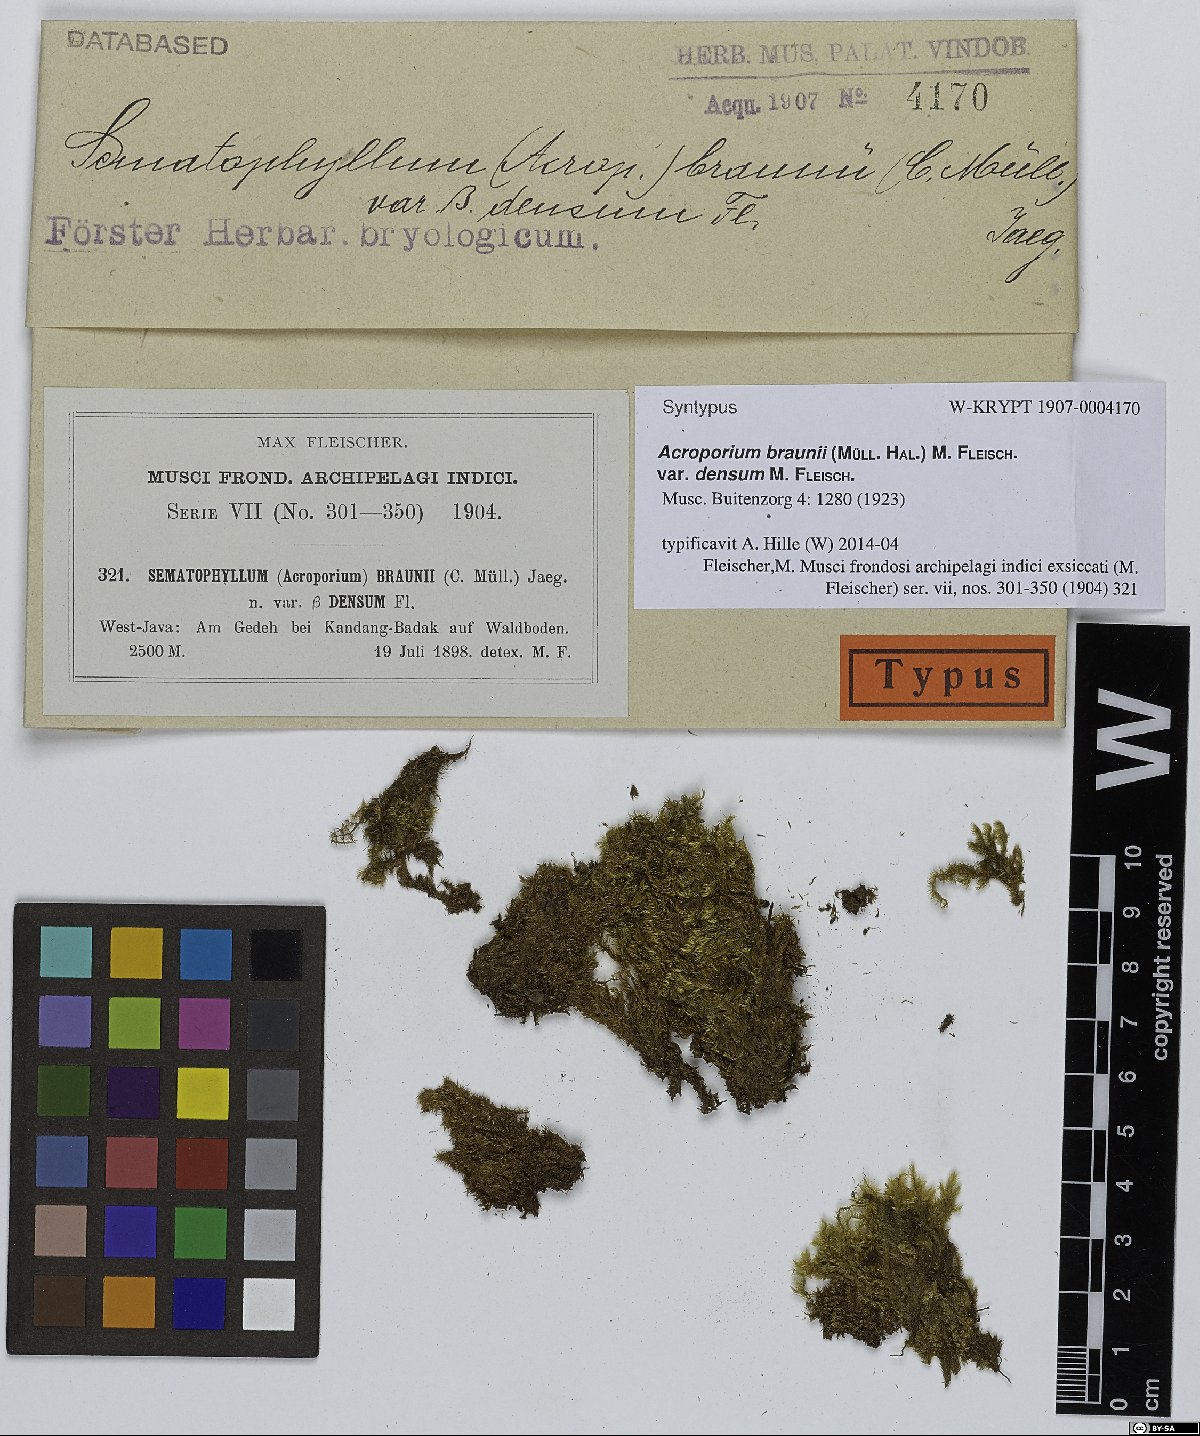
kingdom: Plantae
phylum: Bryophyta
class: Bryopsida
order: Hypnales
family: Sematophyllaceae
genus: Acroporium
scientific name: Acroporium rufum
